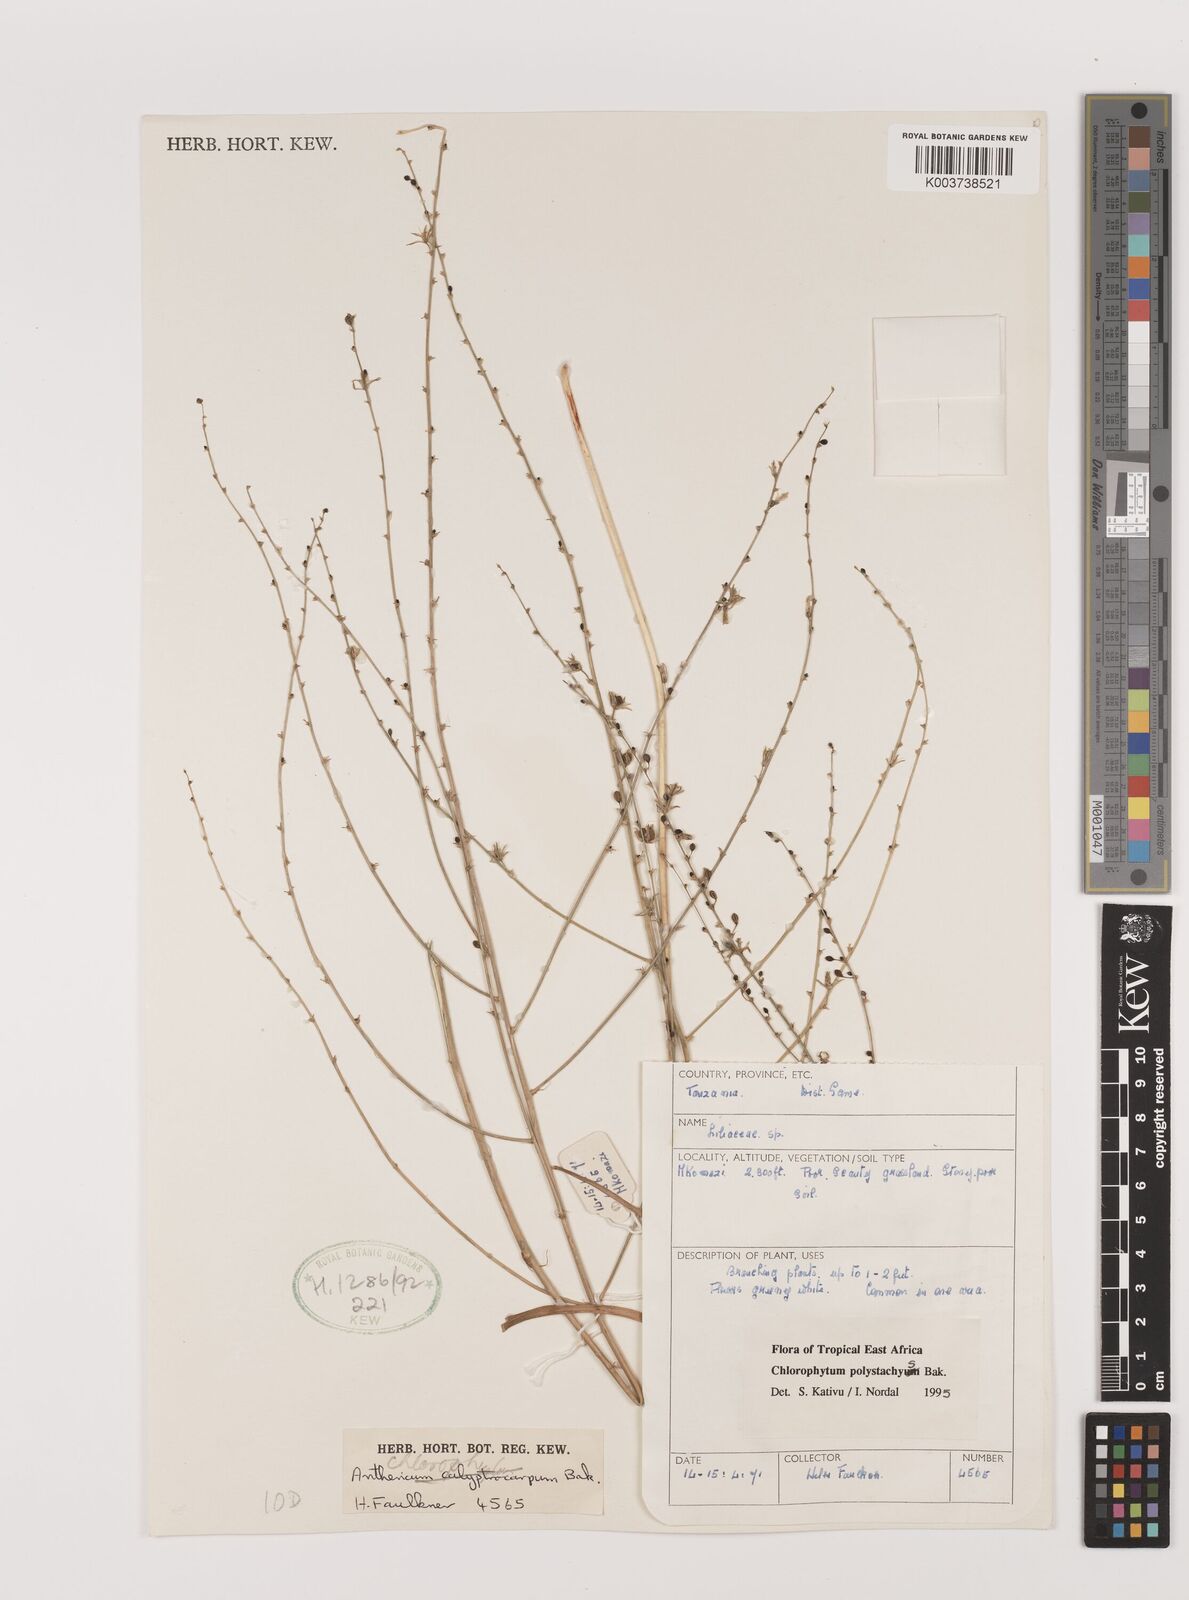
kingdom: Plantae
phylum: Tracheophyta
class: Liliopsida
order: Asparagales
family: Asparagaceae
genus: Chlorophytum
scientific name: Chlorophytum polystachys
